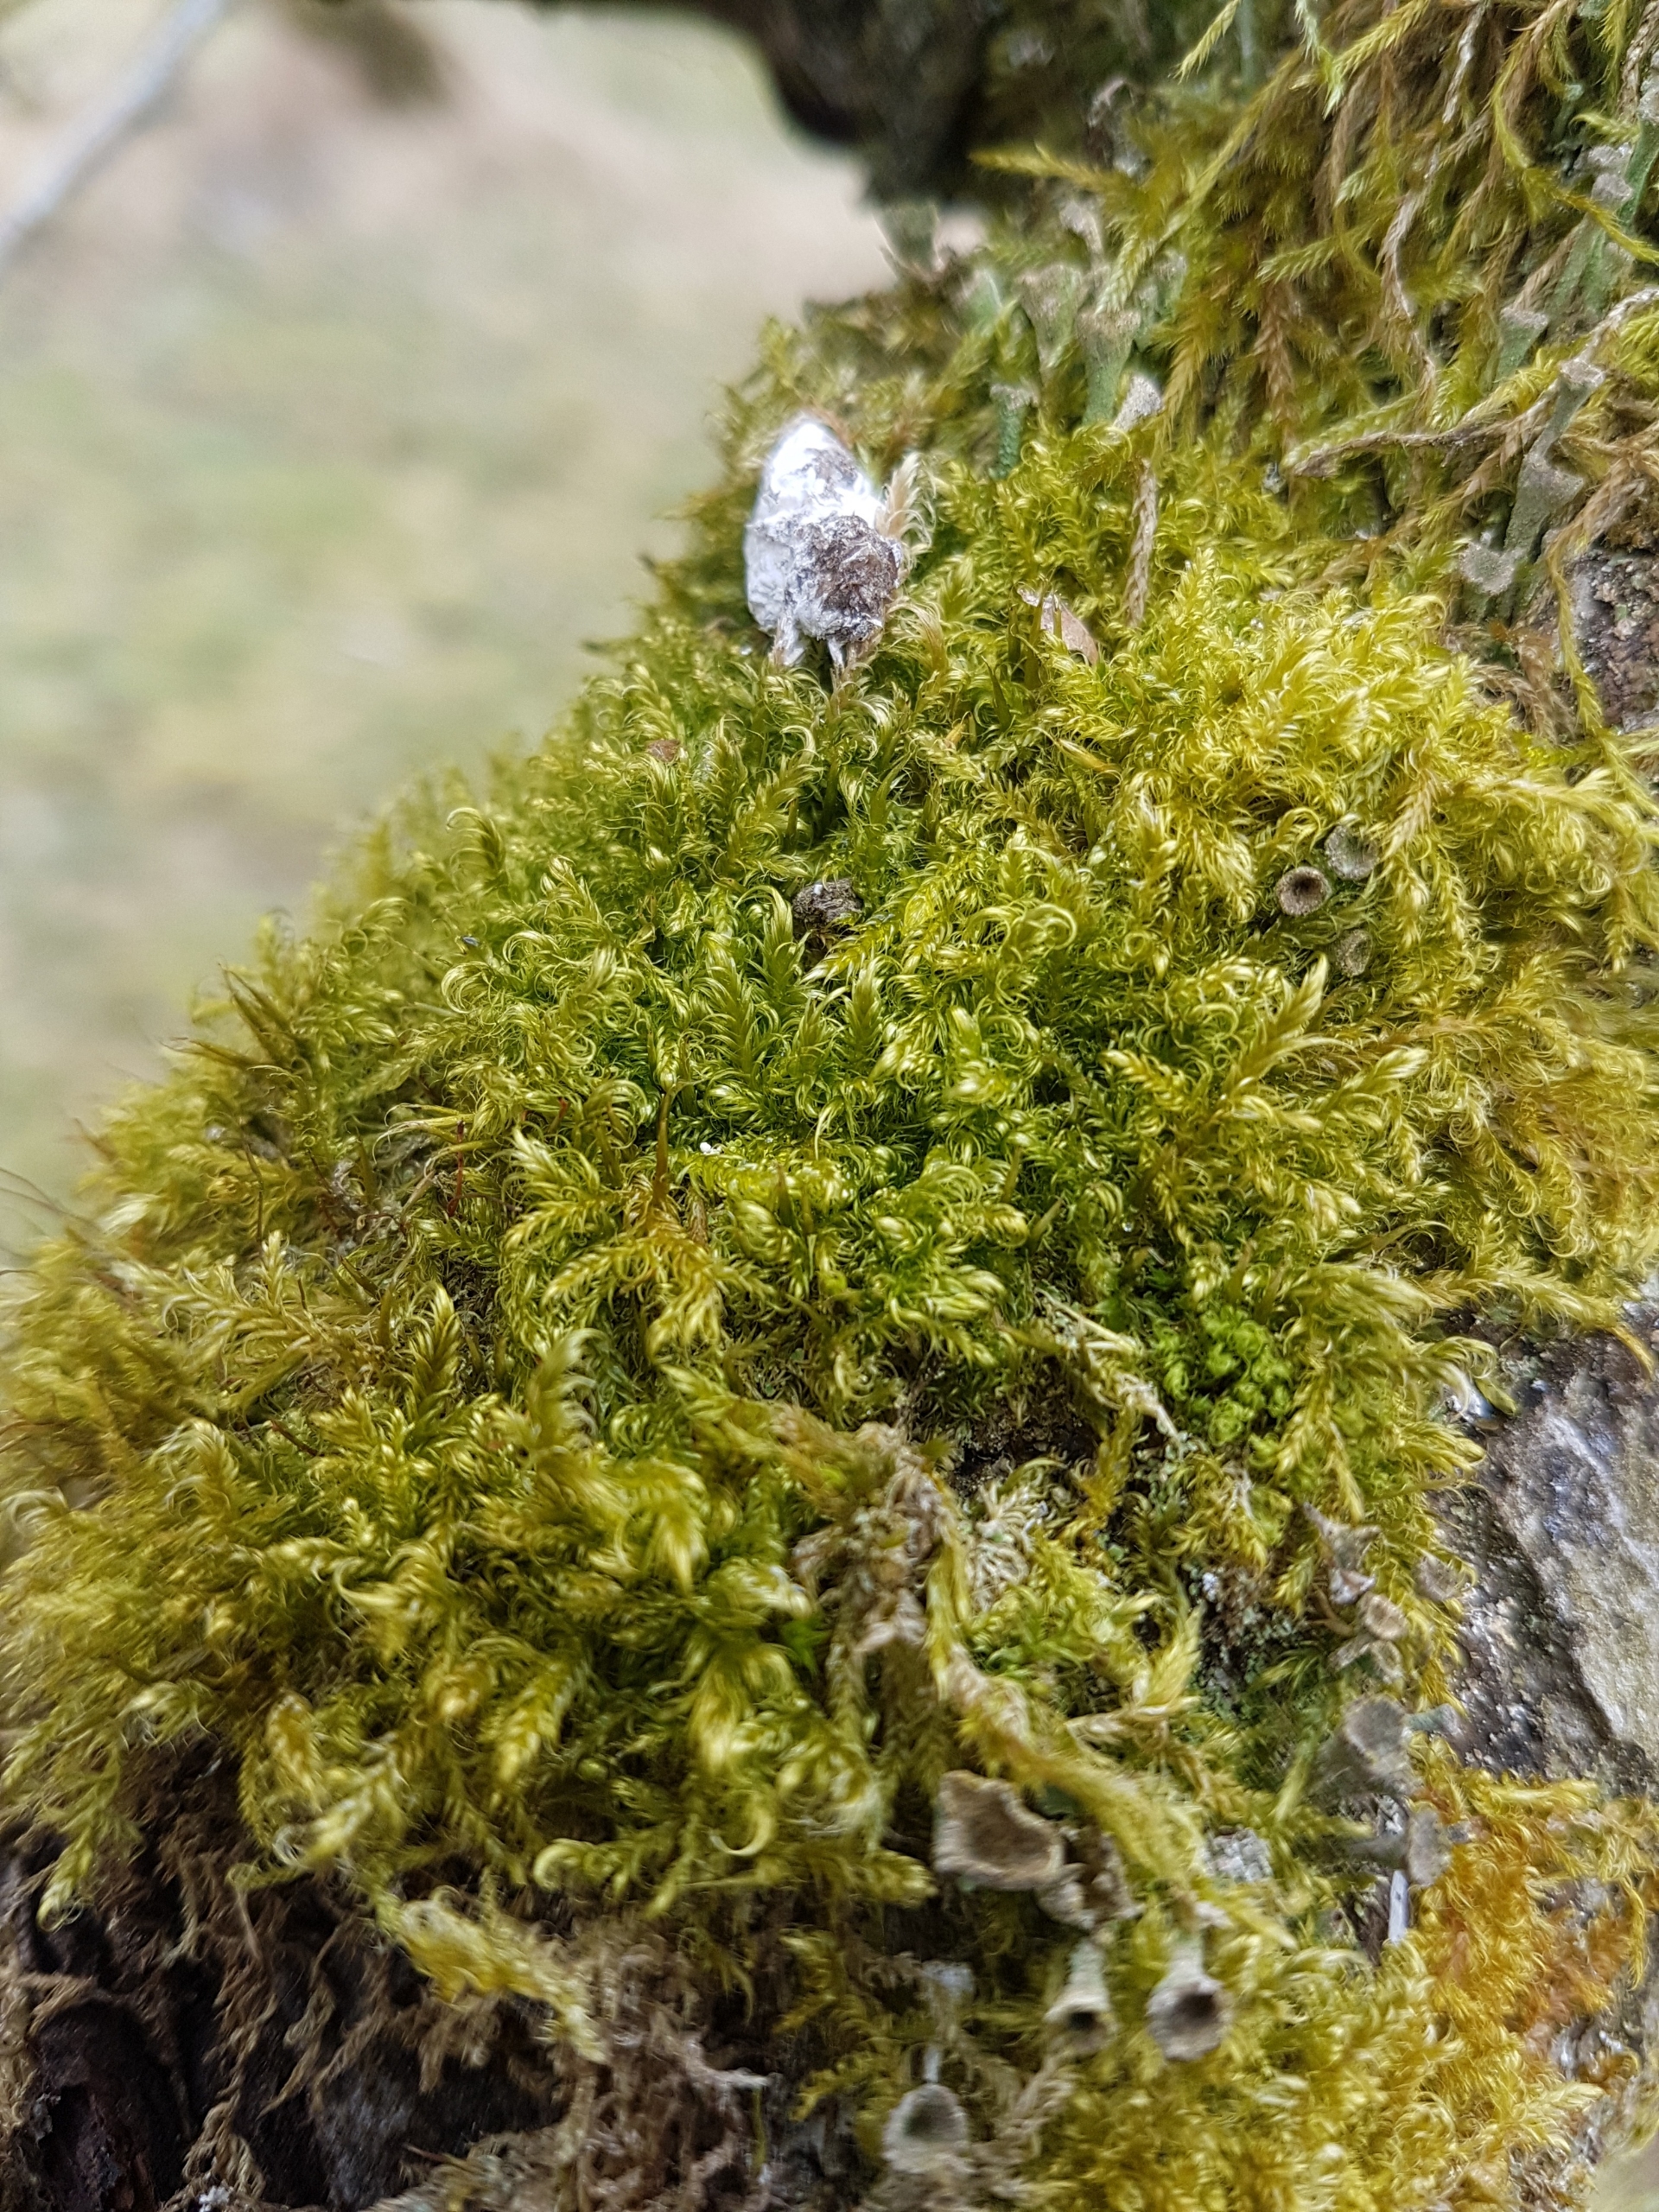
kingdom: Plantae
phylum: Bryophyta
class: Bryopsida
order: Hypnales
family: Scorpidiaceae
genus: Sanionia
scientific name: Sanionia uncinata
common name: Stribet krogblad
